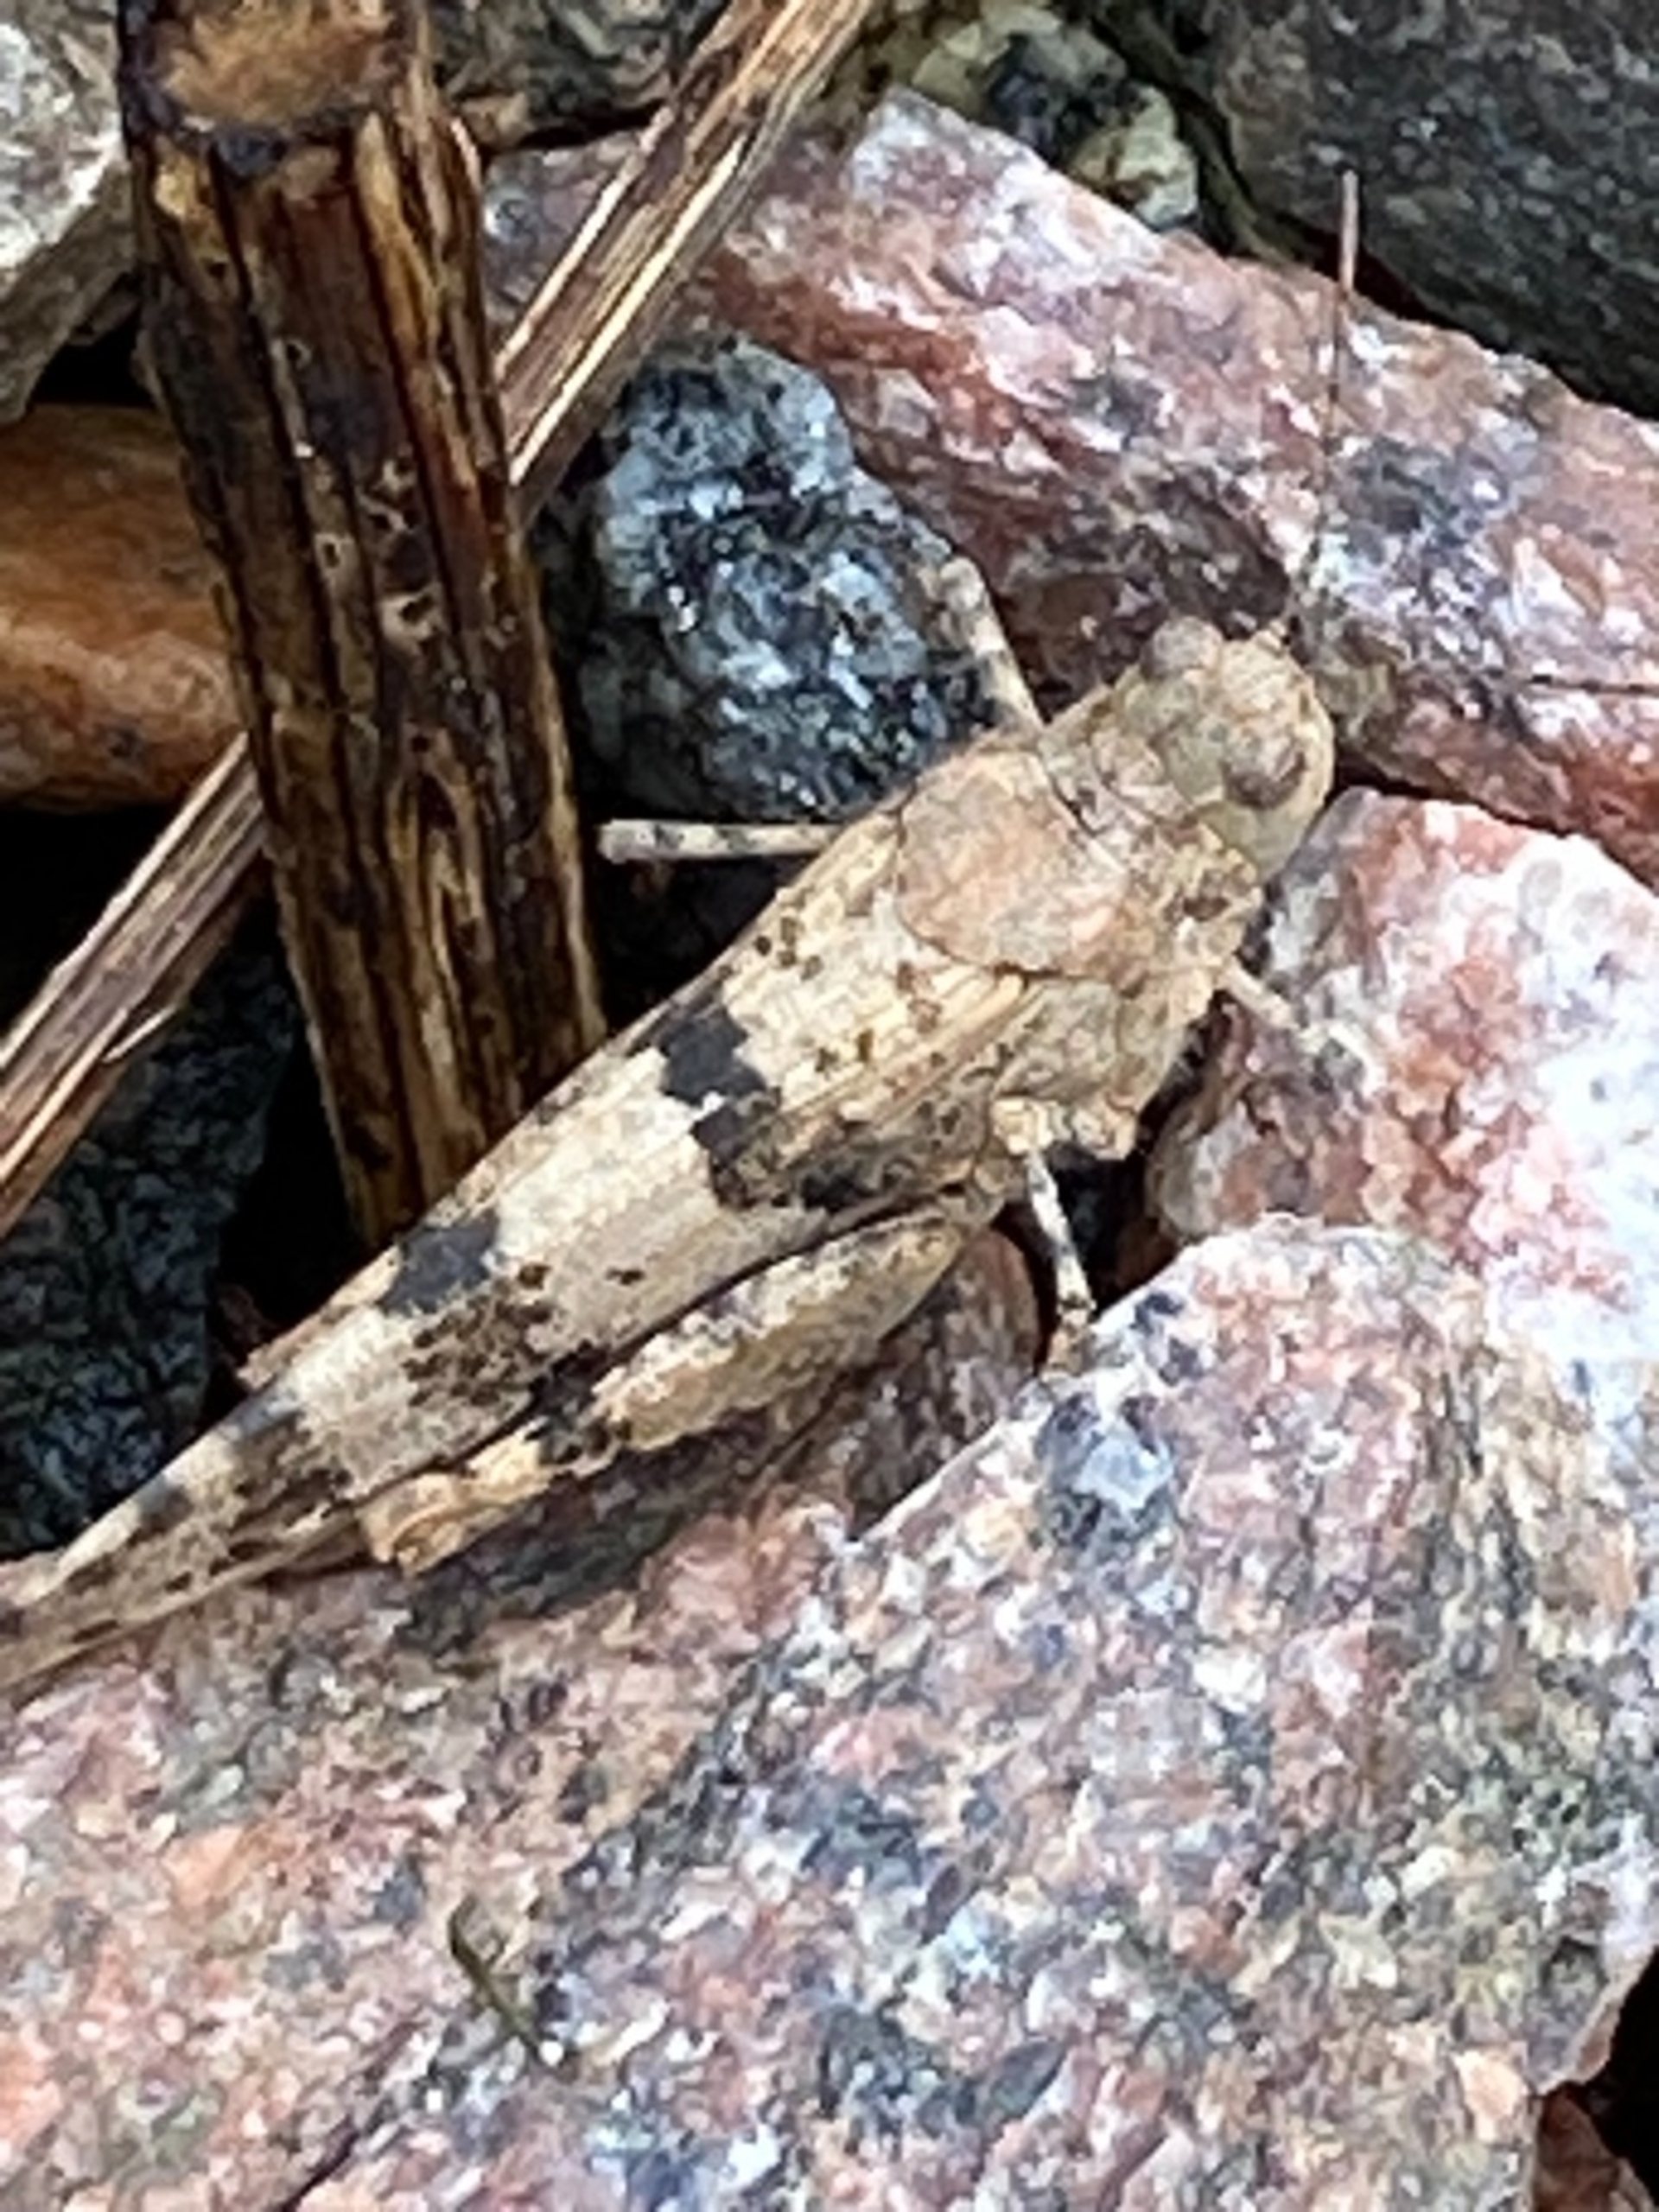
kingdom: Animalia
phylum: Arthropoda
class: Insecta
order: Orthoptera
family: Acrididae
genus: Sphingonotus
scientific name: Sphingonotus caerulans
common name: Blåvinget steppegræshoppe
